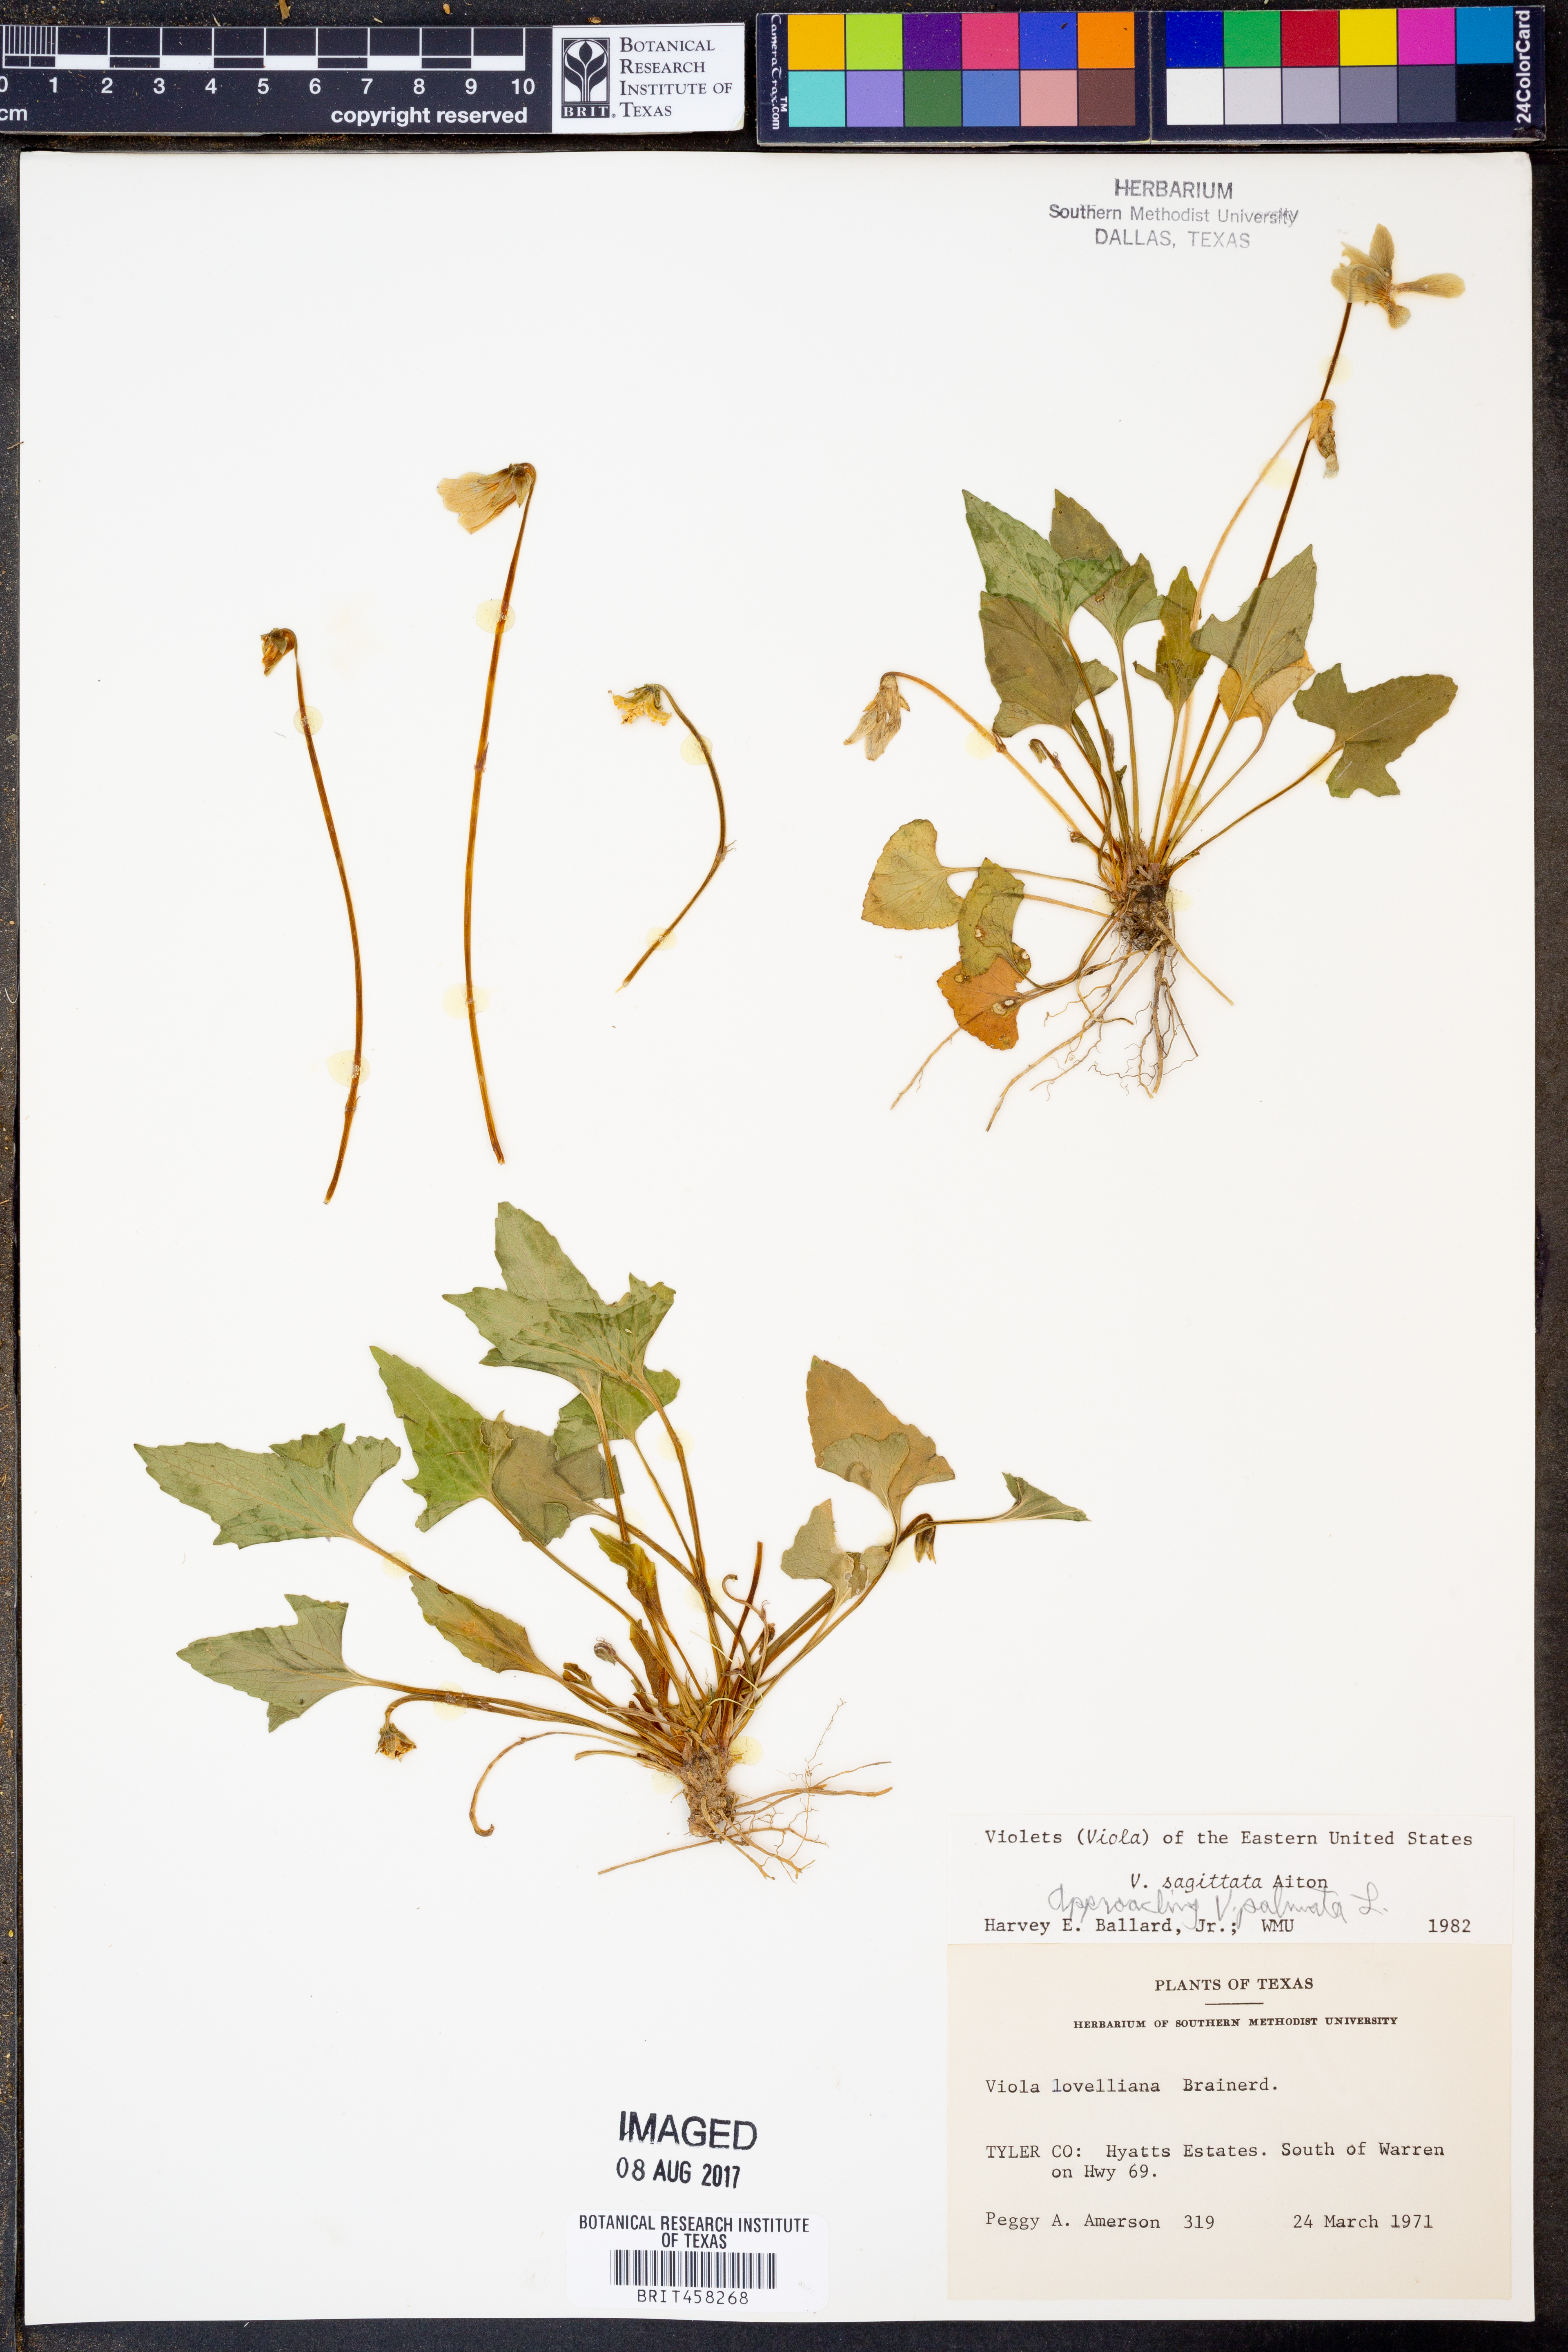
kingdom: Plantae
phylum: Tracheophyta
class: Magnoliopsida
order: Malpighiales
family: Violaceae
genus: Viola
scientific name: Viola sagittata
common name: Arrowhead violet
